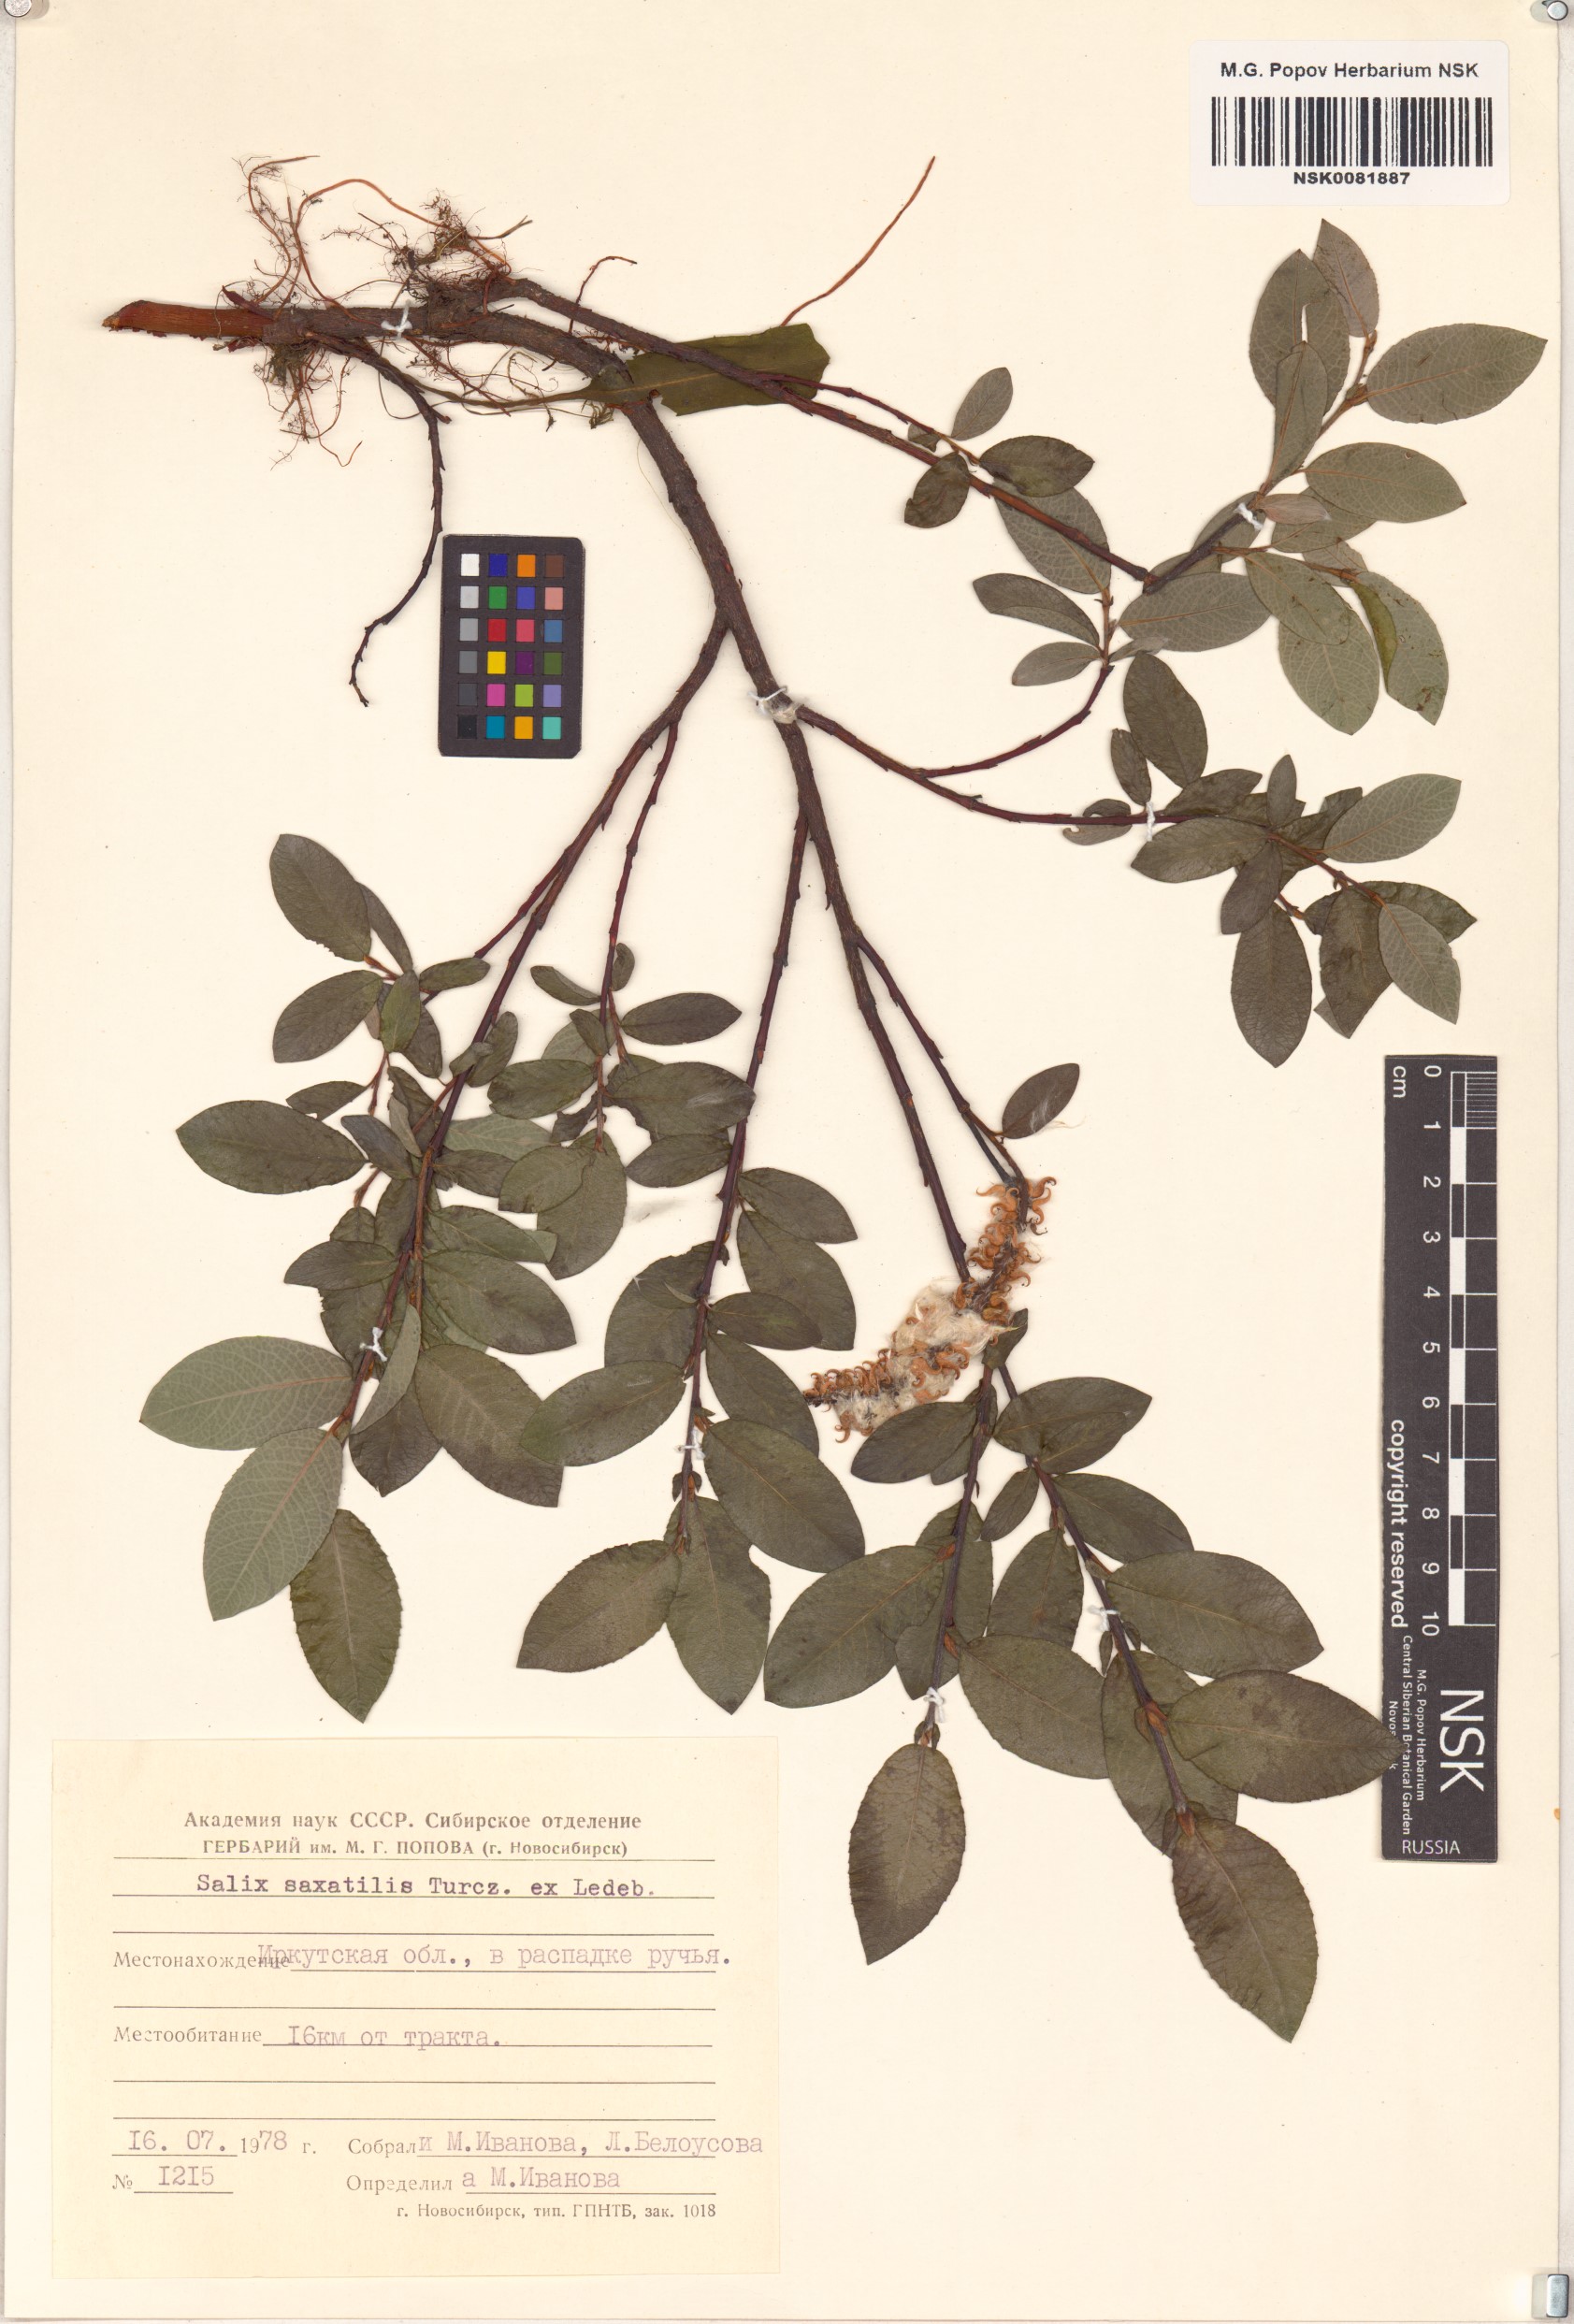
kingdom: Plantae
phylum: Tracheophyta
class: Magnoliopsida
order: Malpighiales
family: Salicaceae
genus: Salix
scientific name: Salix saxatilis
